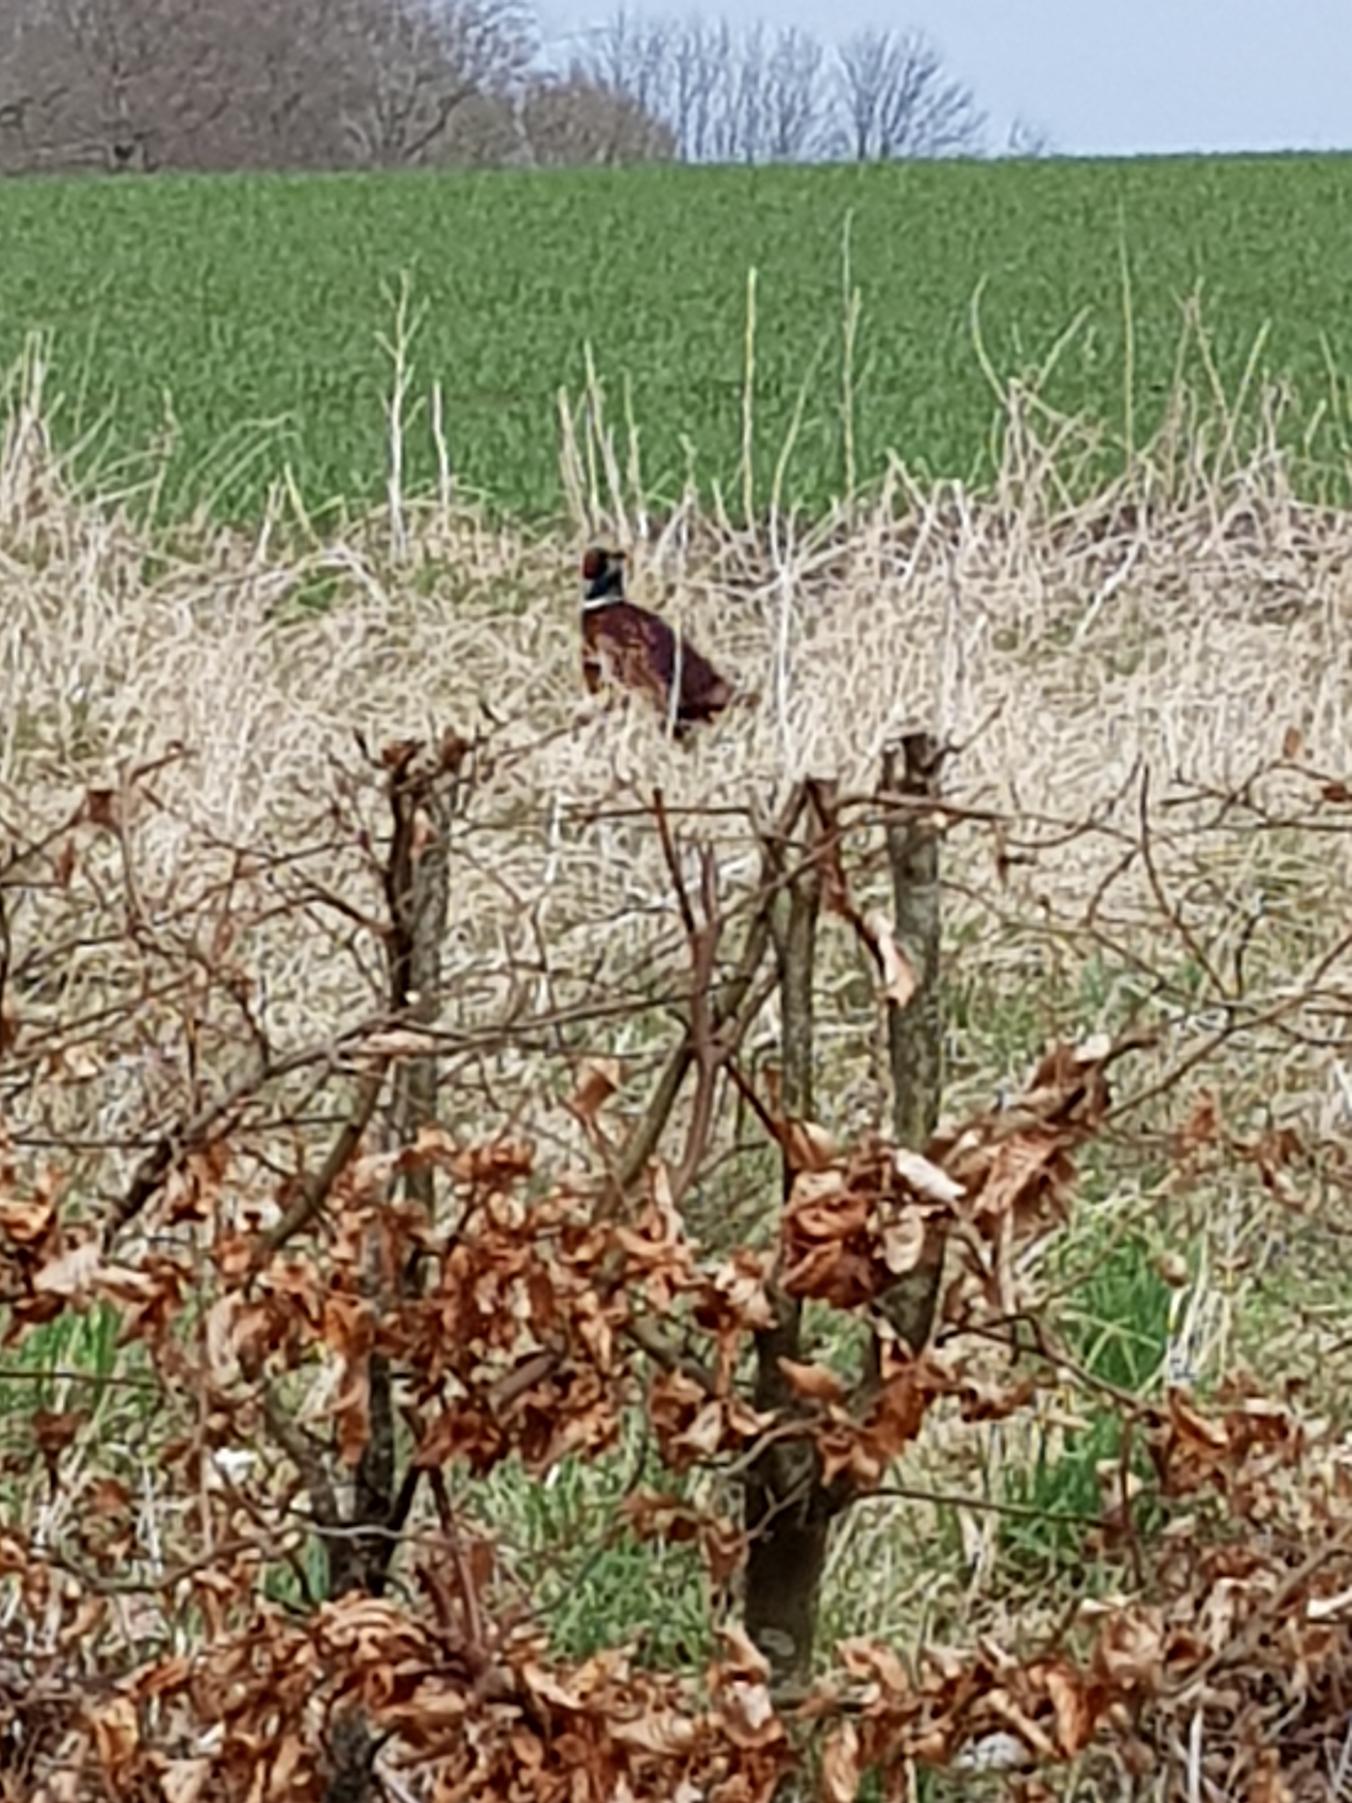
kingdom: Animalia
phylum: Chordata
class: Aves
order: Galliformes
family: Phasianidae
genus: Phasianus
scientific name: Phasianus colchicus
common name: Fasan
